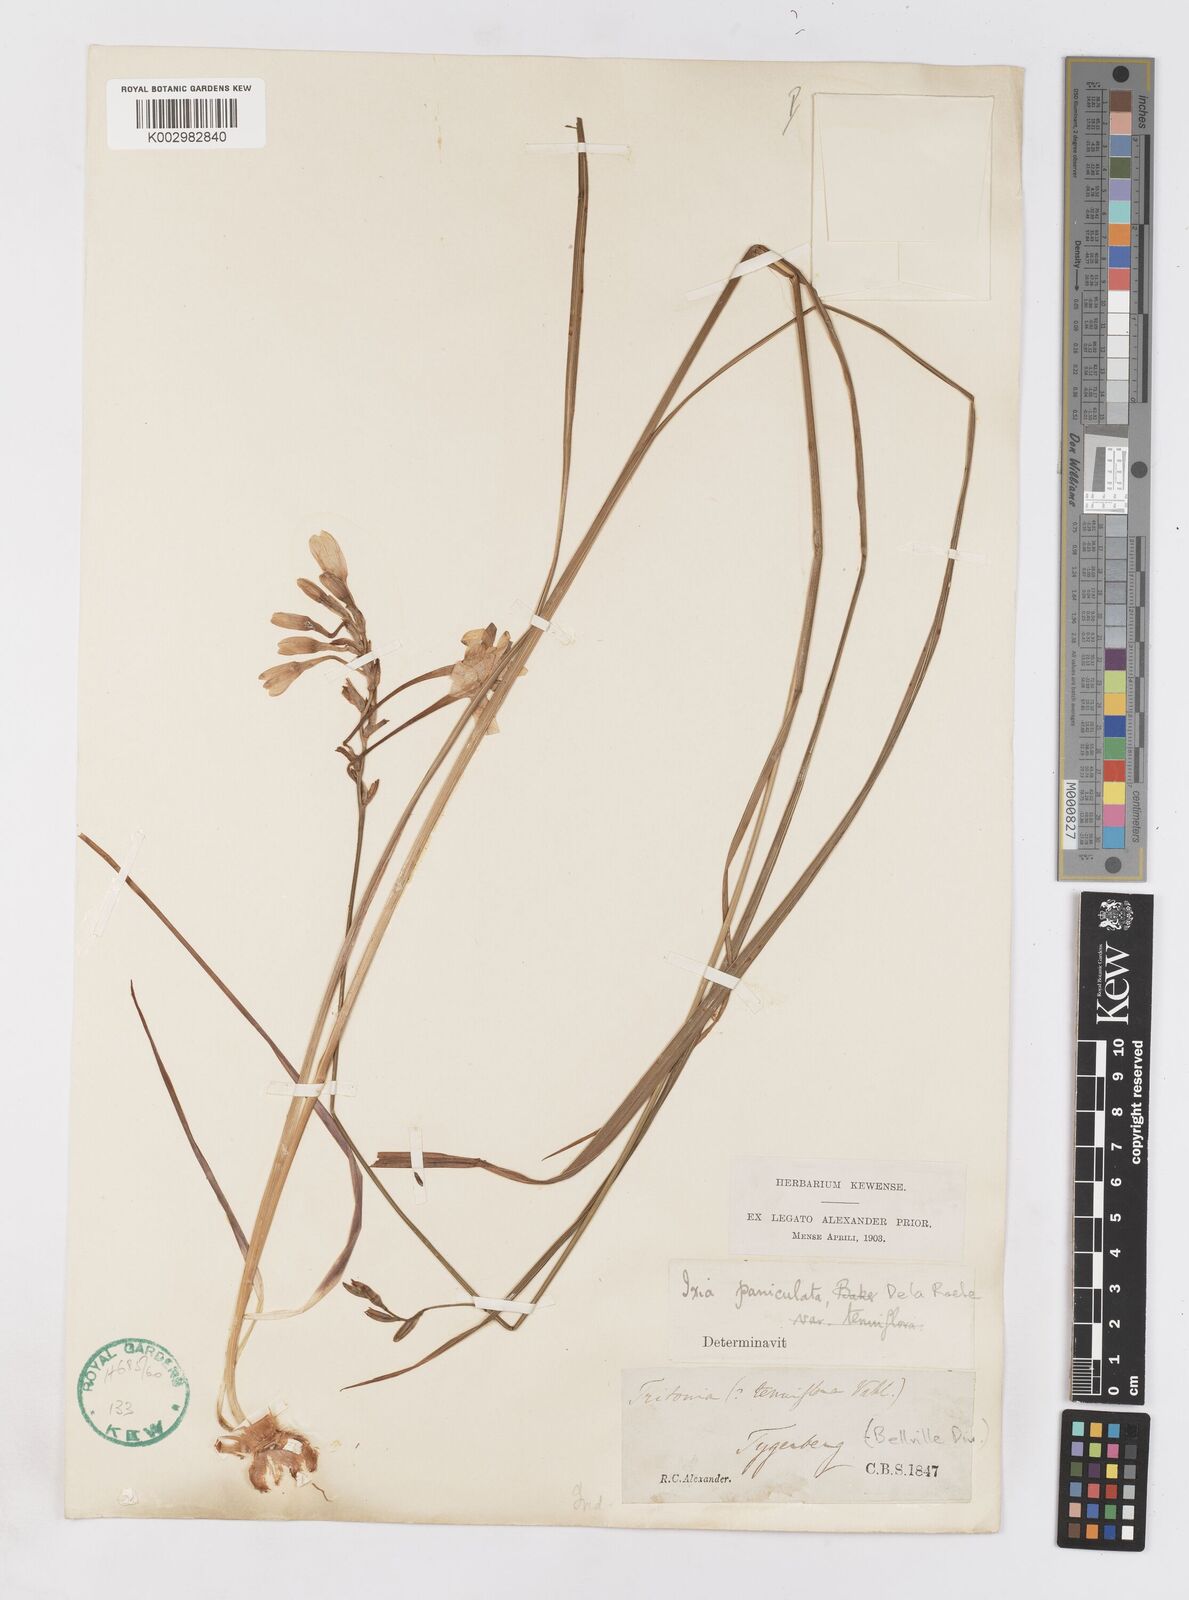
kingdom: Plantae
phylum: Tracheophyta
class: Liliopsida
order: Asparagales
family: Iridaceae
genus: Ixia
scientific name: Ixia paniculata
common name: Tubular corn-lily
